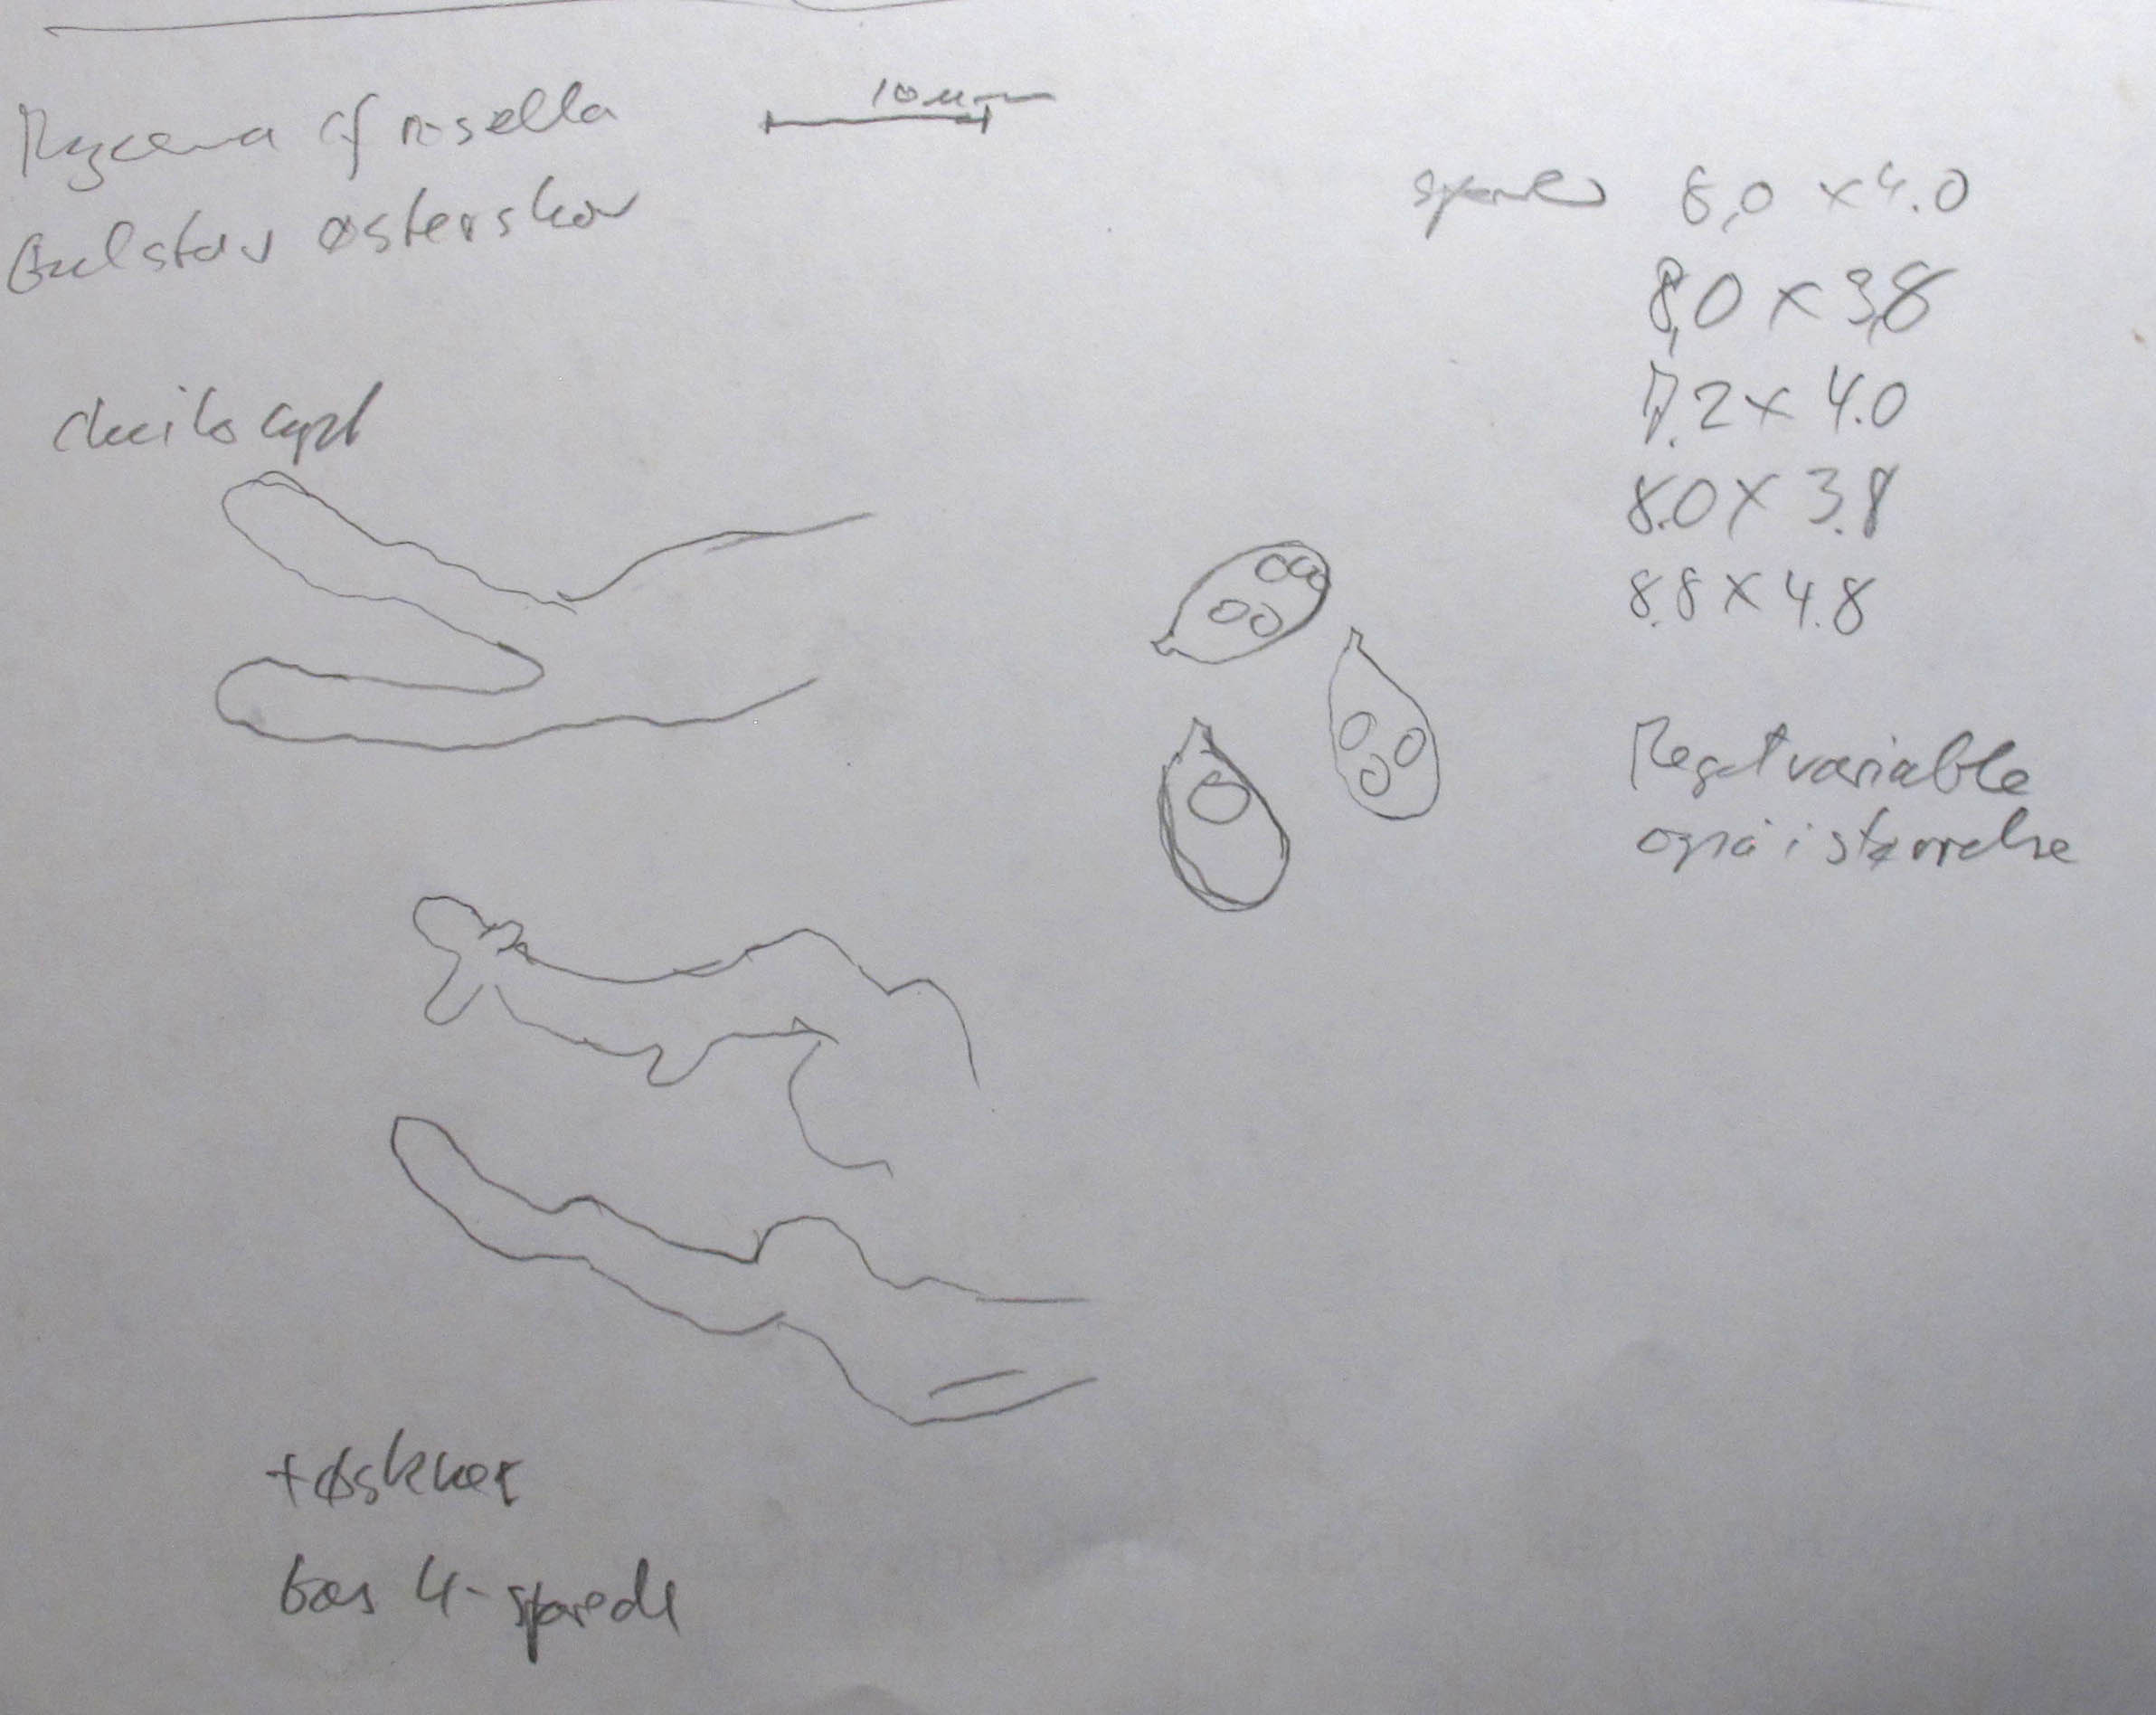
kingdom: Fungi
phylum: Basidiomycota
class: Agaricomycetes
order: Agaricales
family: Mycenaceae
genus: Mycena
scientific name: Mycena albidolilacea
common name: lyslilla huesvamp
